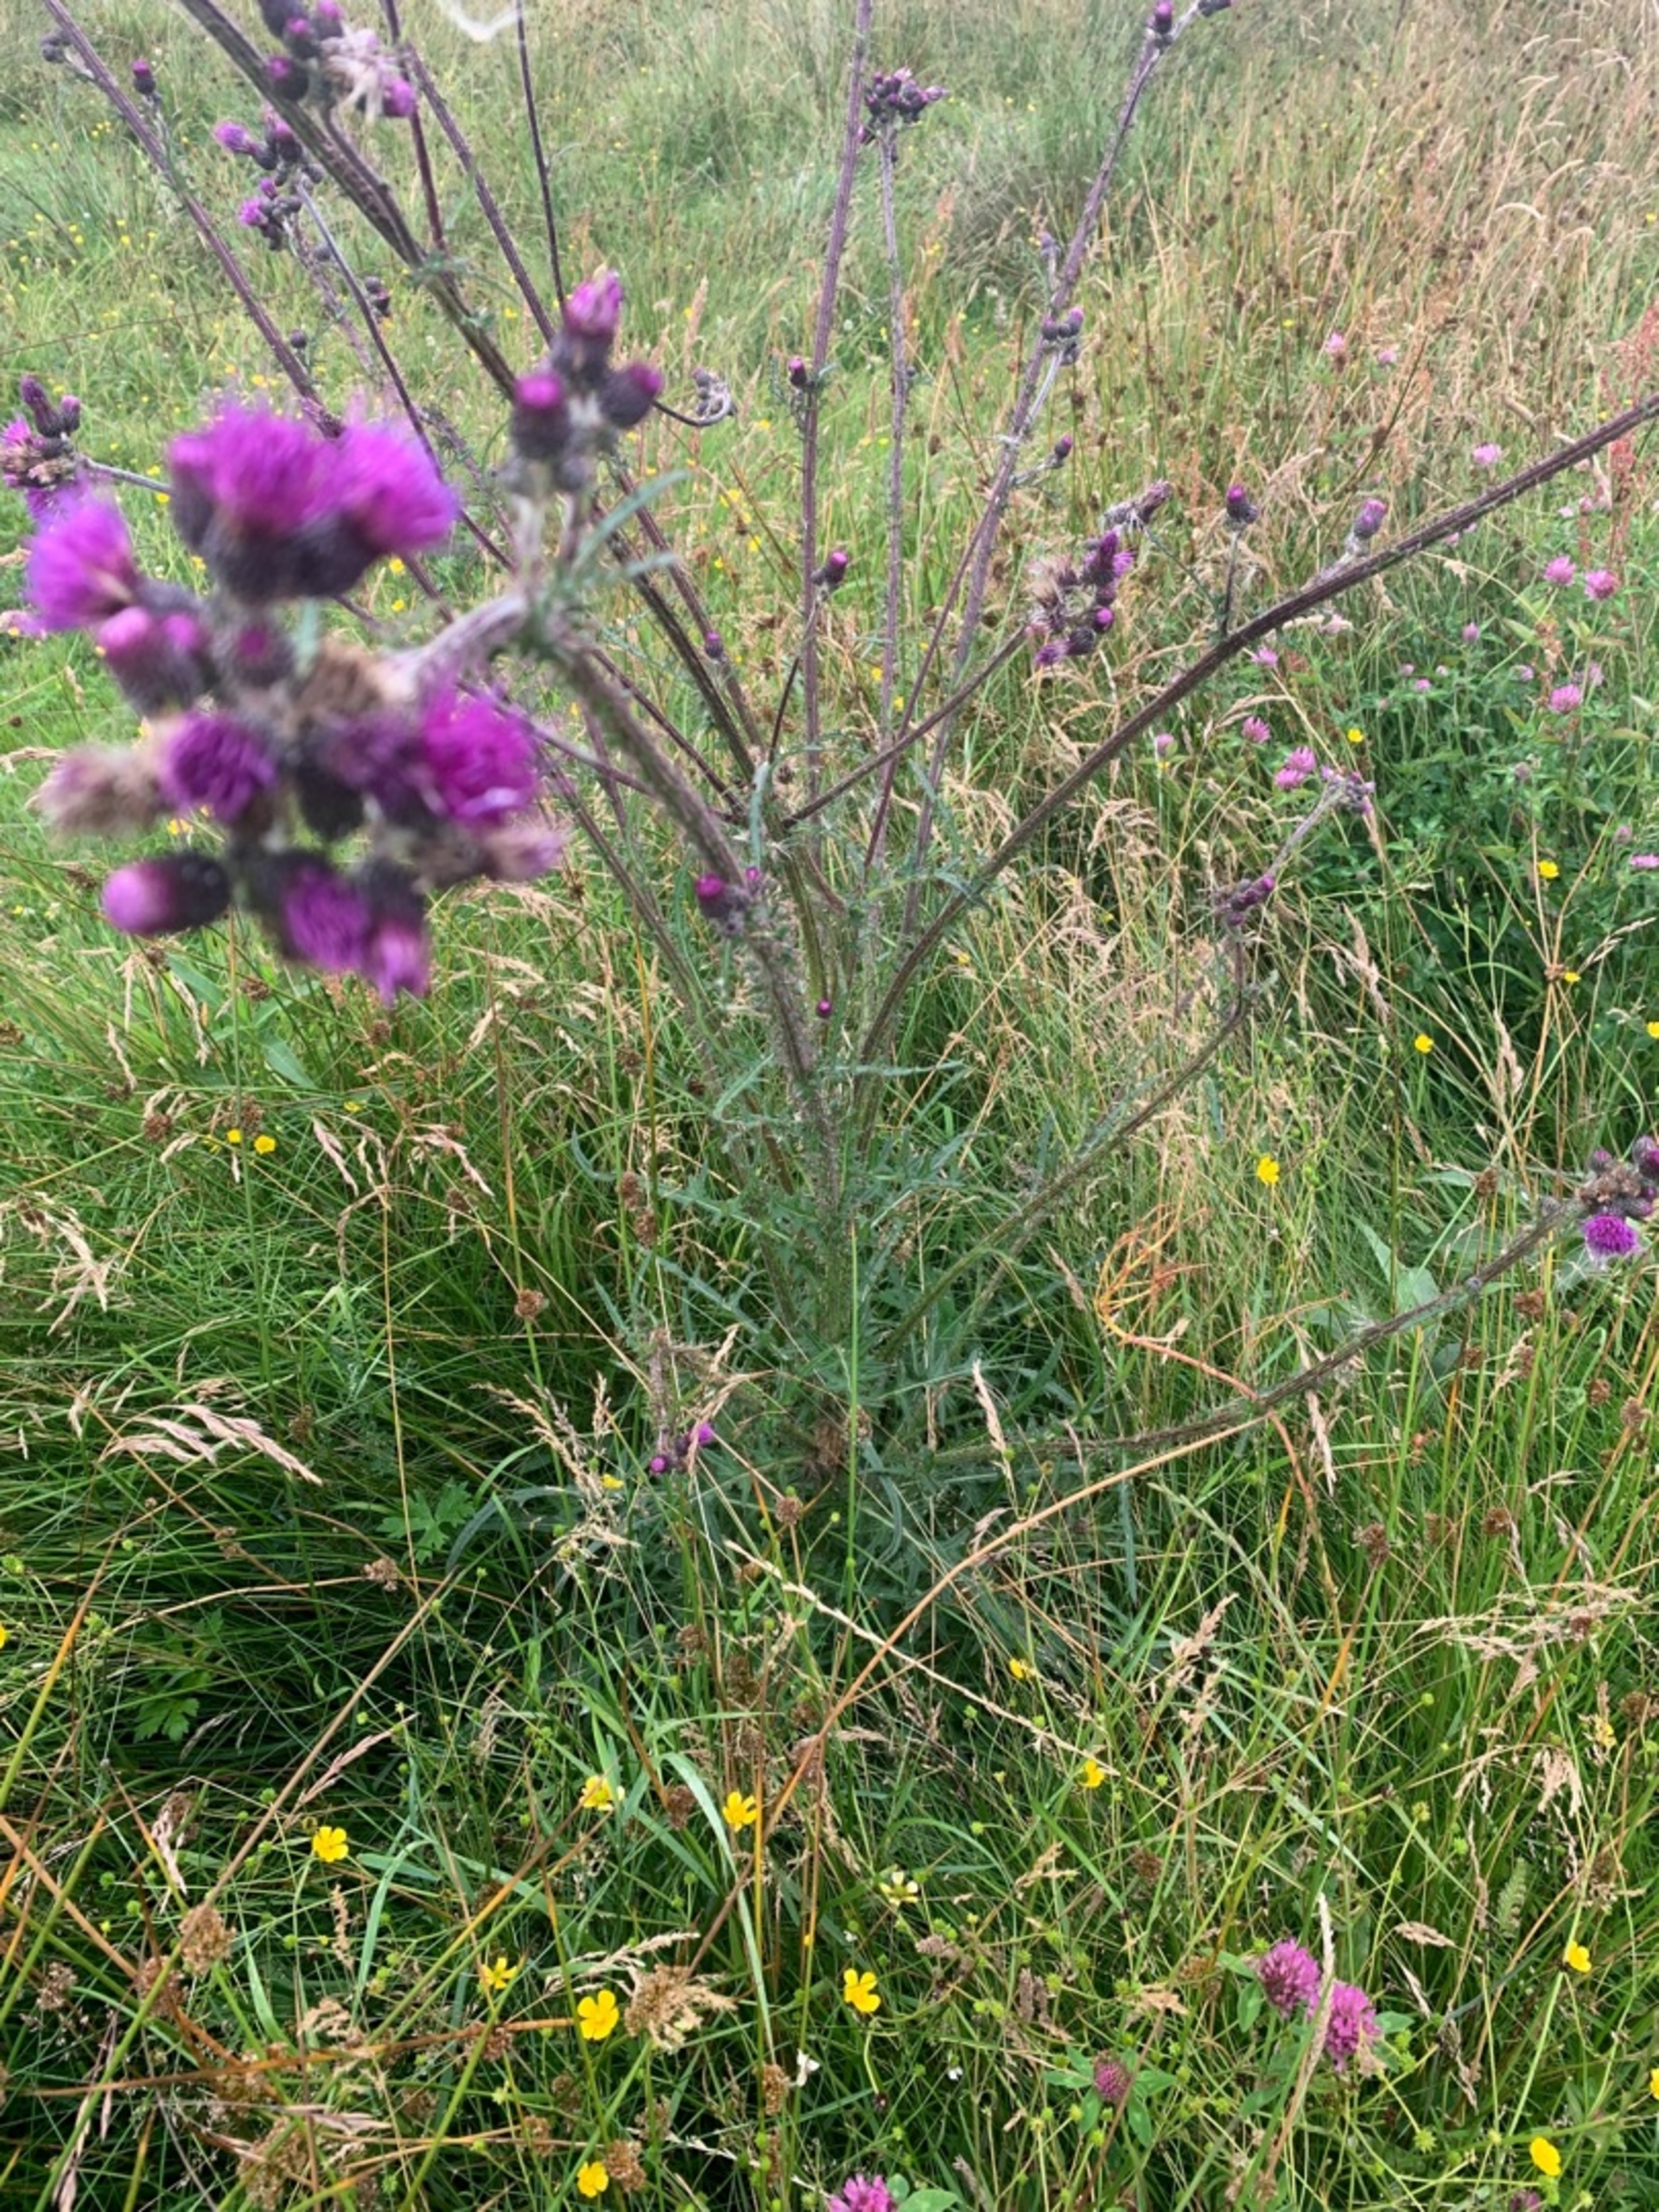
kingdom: Plantae
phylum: Tracheophyta
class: Magnoliopsida
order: Asterales
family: Asteraceae
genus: Cirsium
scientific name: Cirsium palustre
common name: Kær-tidsel
